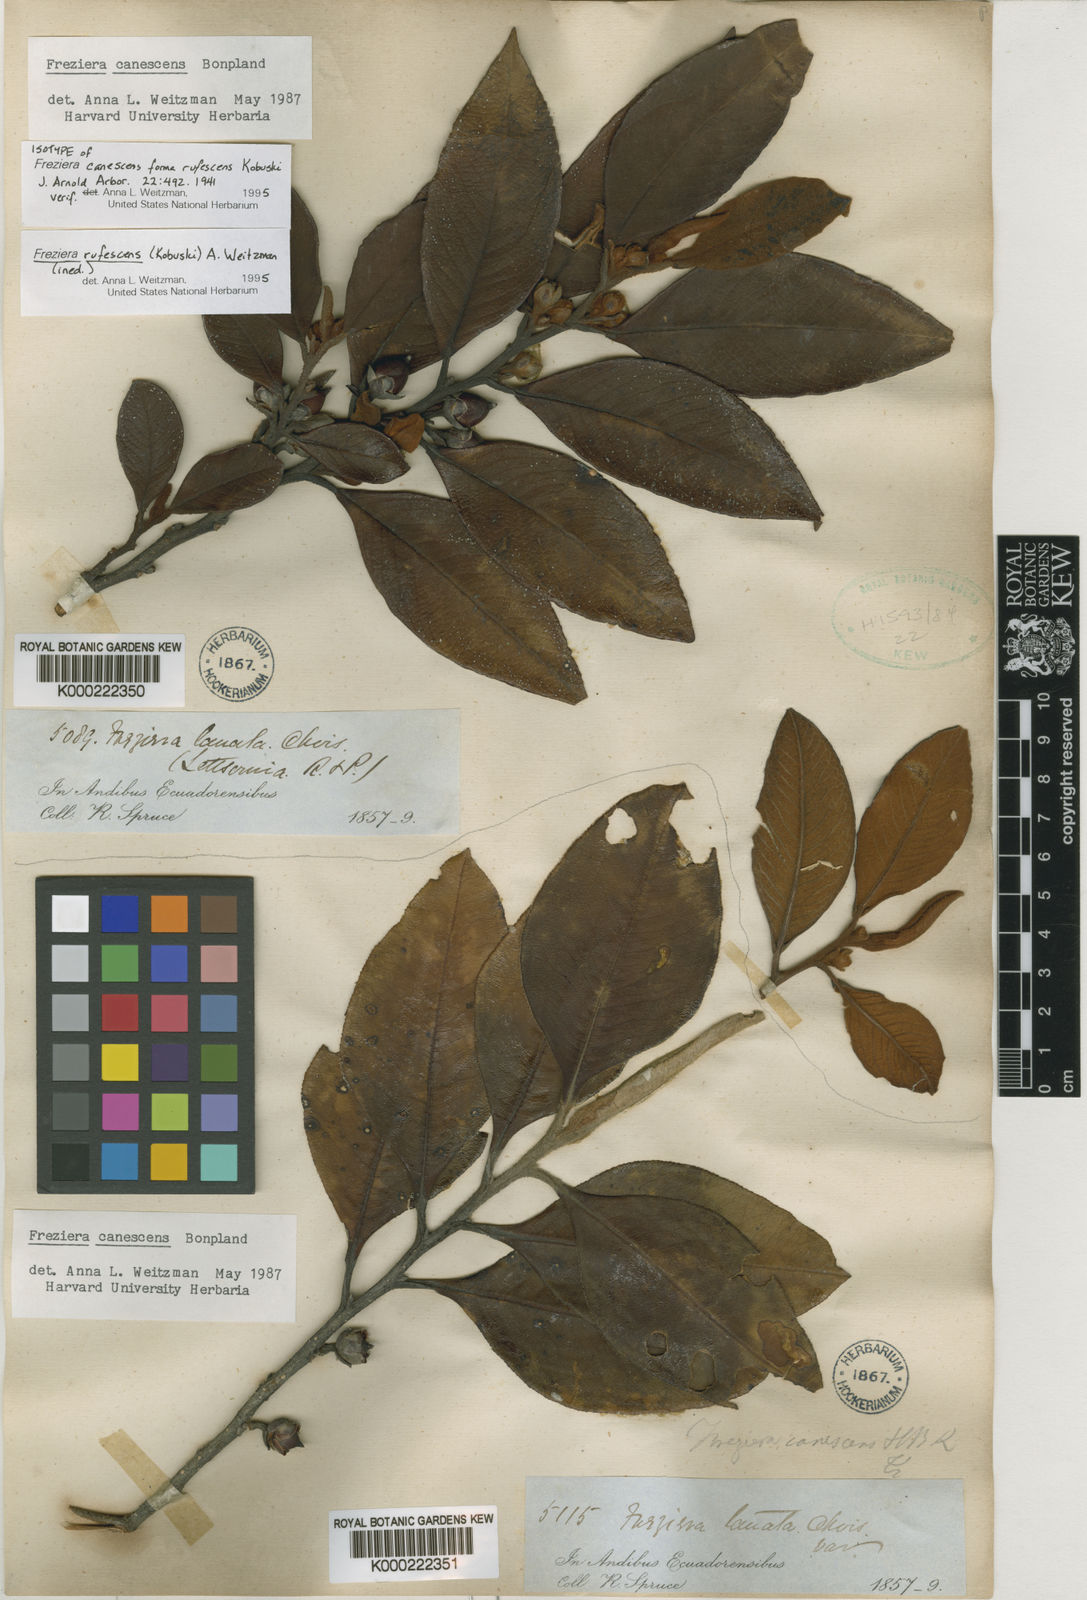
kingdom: Plantae
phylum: Tracheophyta
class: Magnoliopsida
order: Ericales
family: Pentaphylacaceae
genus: Freziera
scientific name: Freziera
